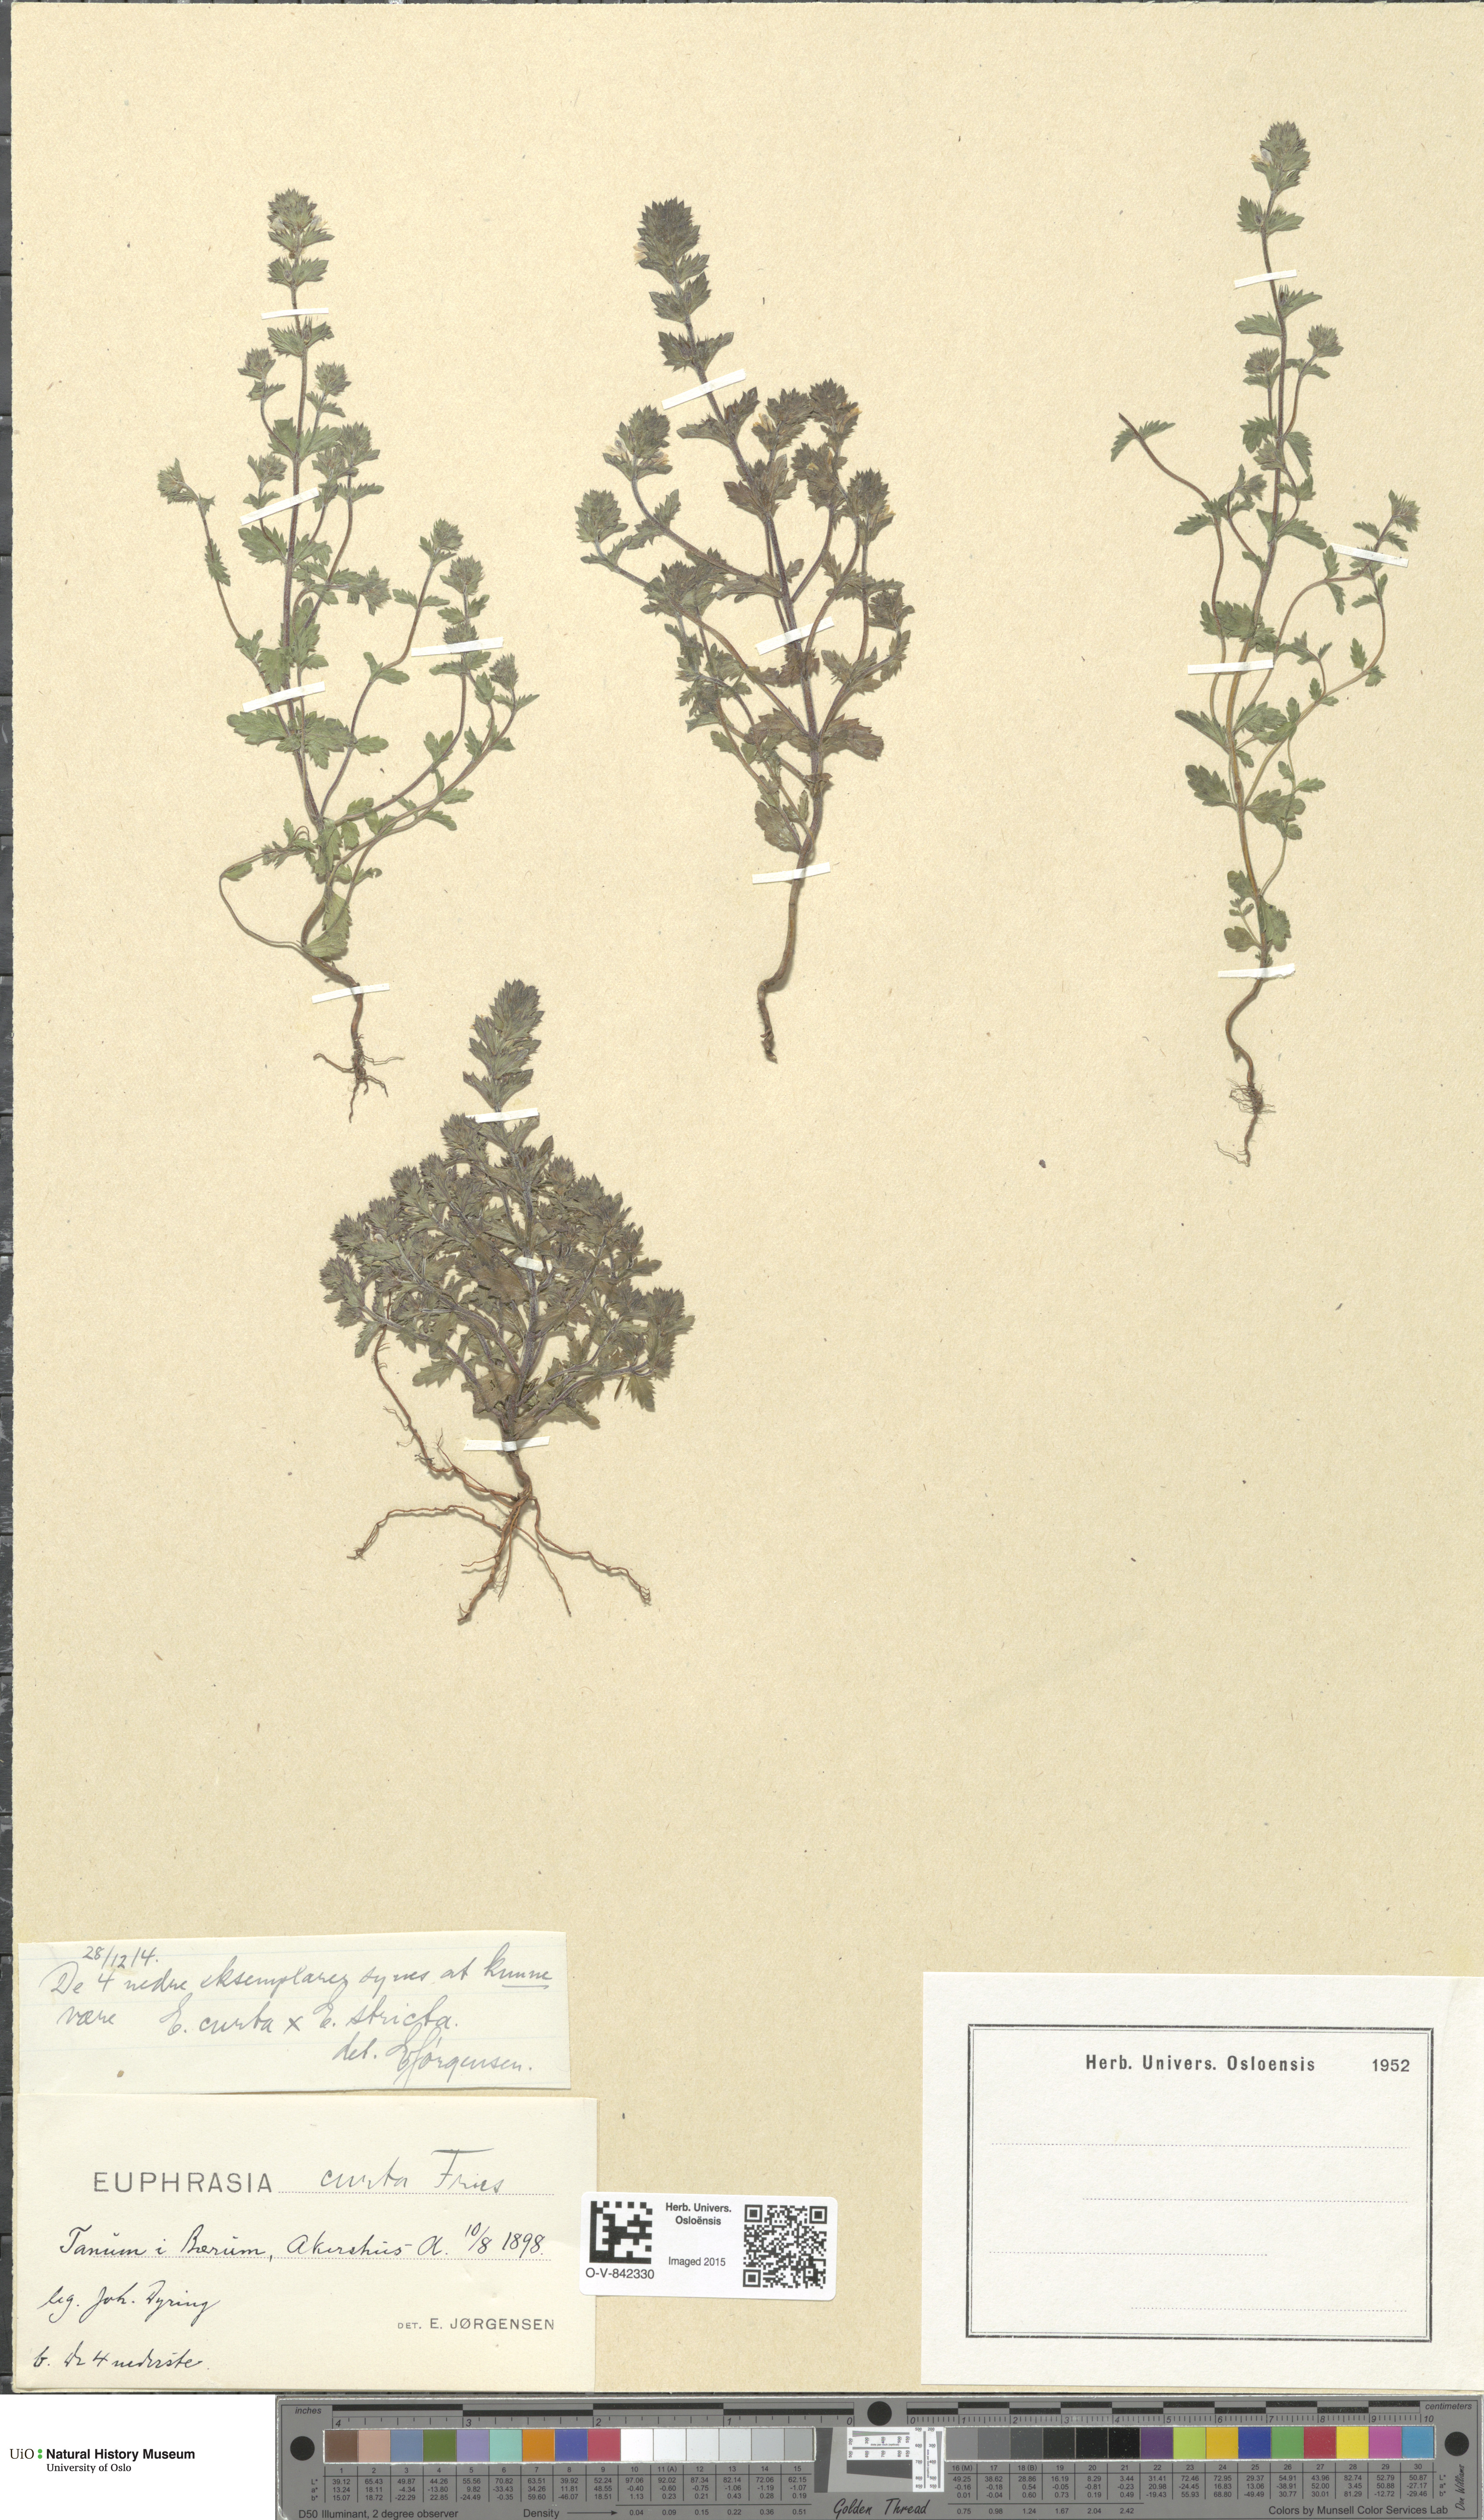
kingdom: Plantae
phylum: Tracheophyta
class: Magnoliopsida
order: Lamiales
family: Orobanchaceae
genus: Euphrasia
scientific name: Euphrasia micrantha
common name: Northern eyebright
